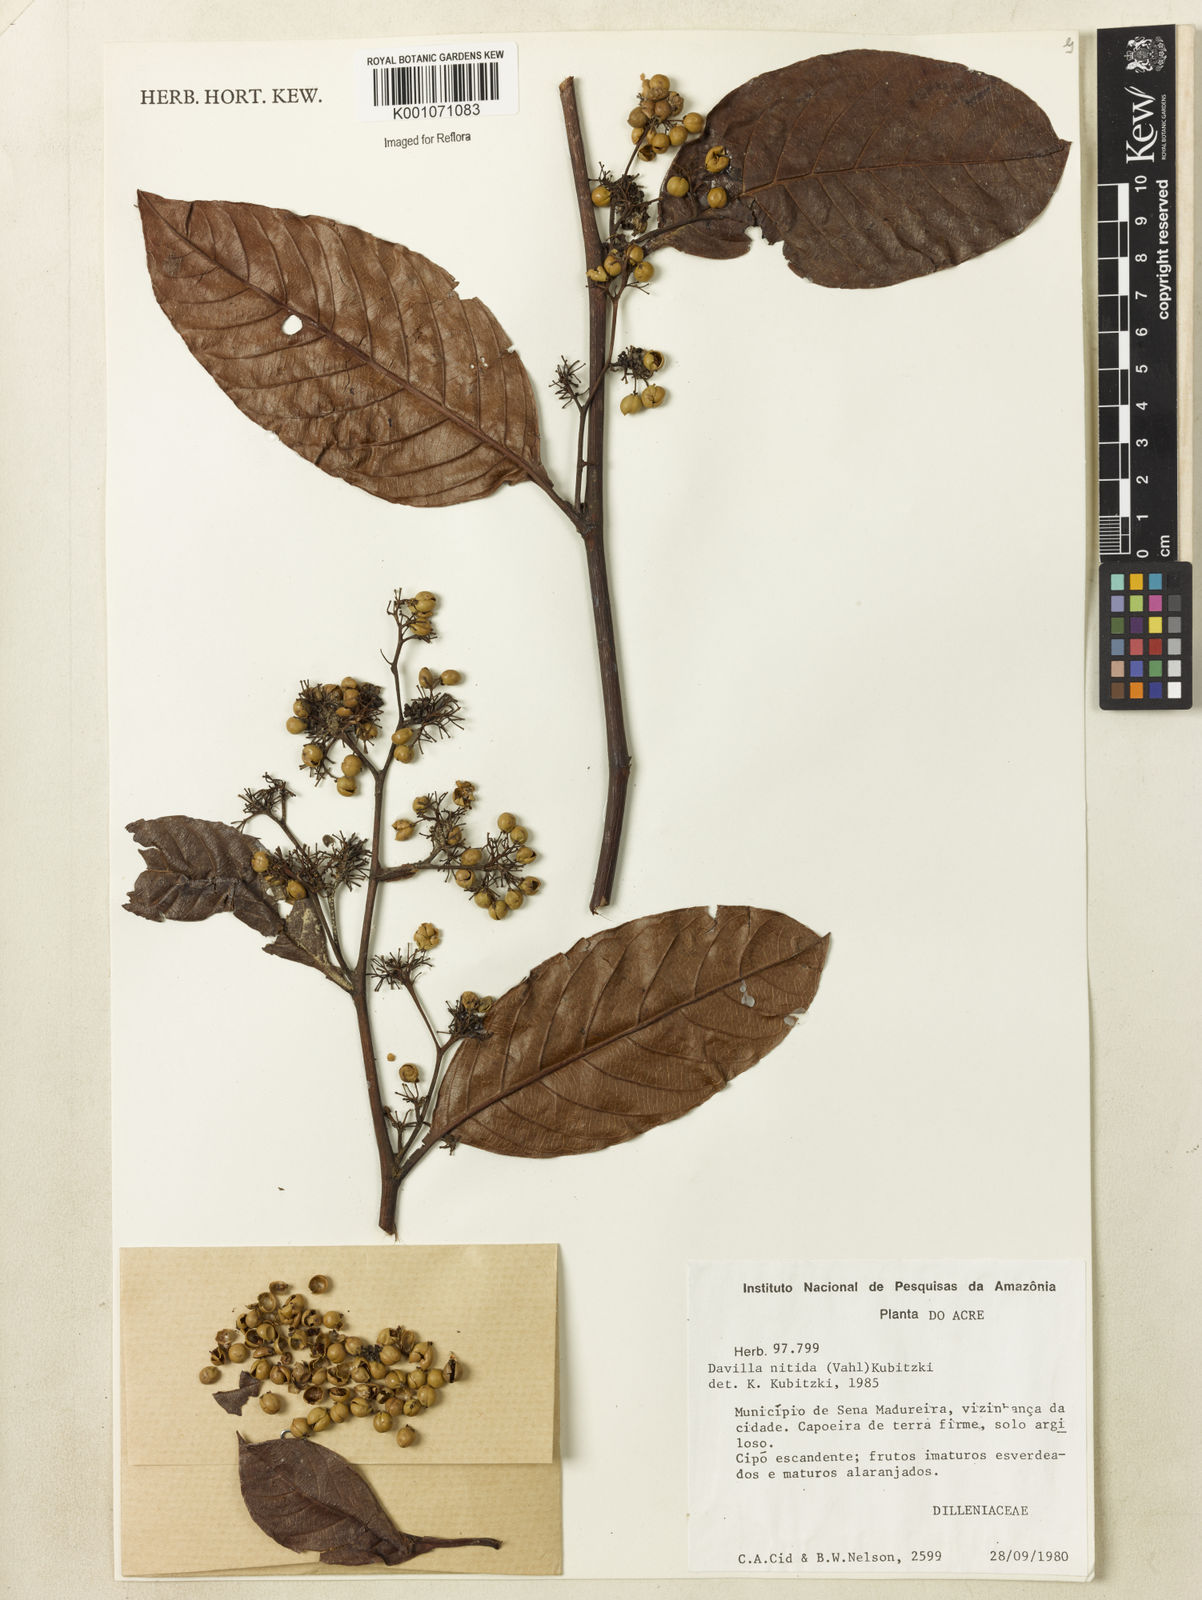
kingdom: Plantae
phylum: Tracheophyta
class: Magnoliopsida
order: Dilleniales
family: Dilleniaceae
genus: Davilla
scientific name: Davilla nitida
